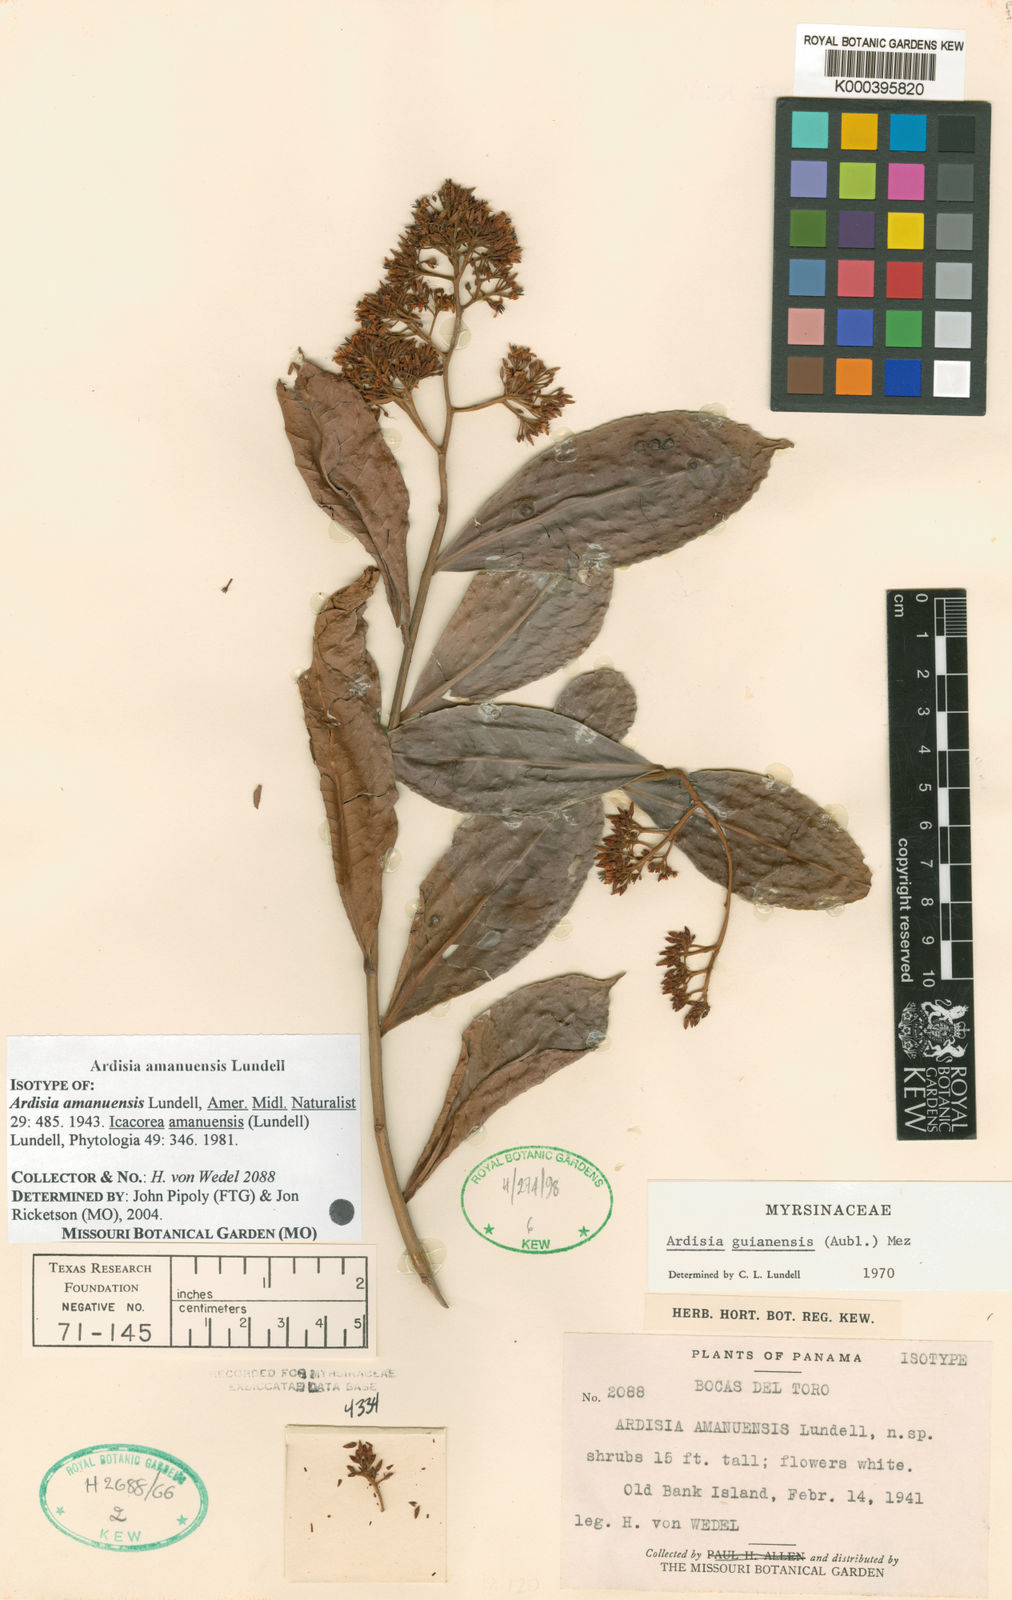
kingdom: Plantae
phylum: Tracheophyta
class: Magnoliopsida
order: Ericales
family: Primulaceae
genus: Ardisia
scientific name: Ardisia amanuensis
